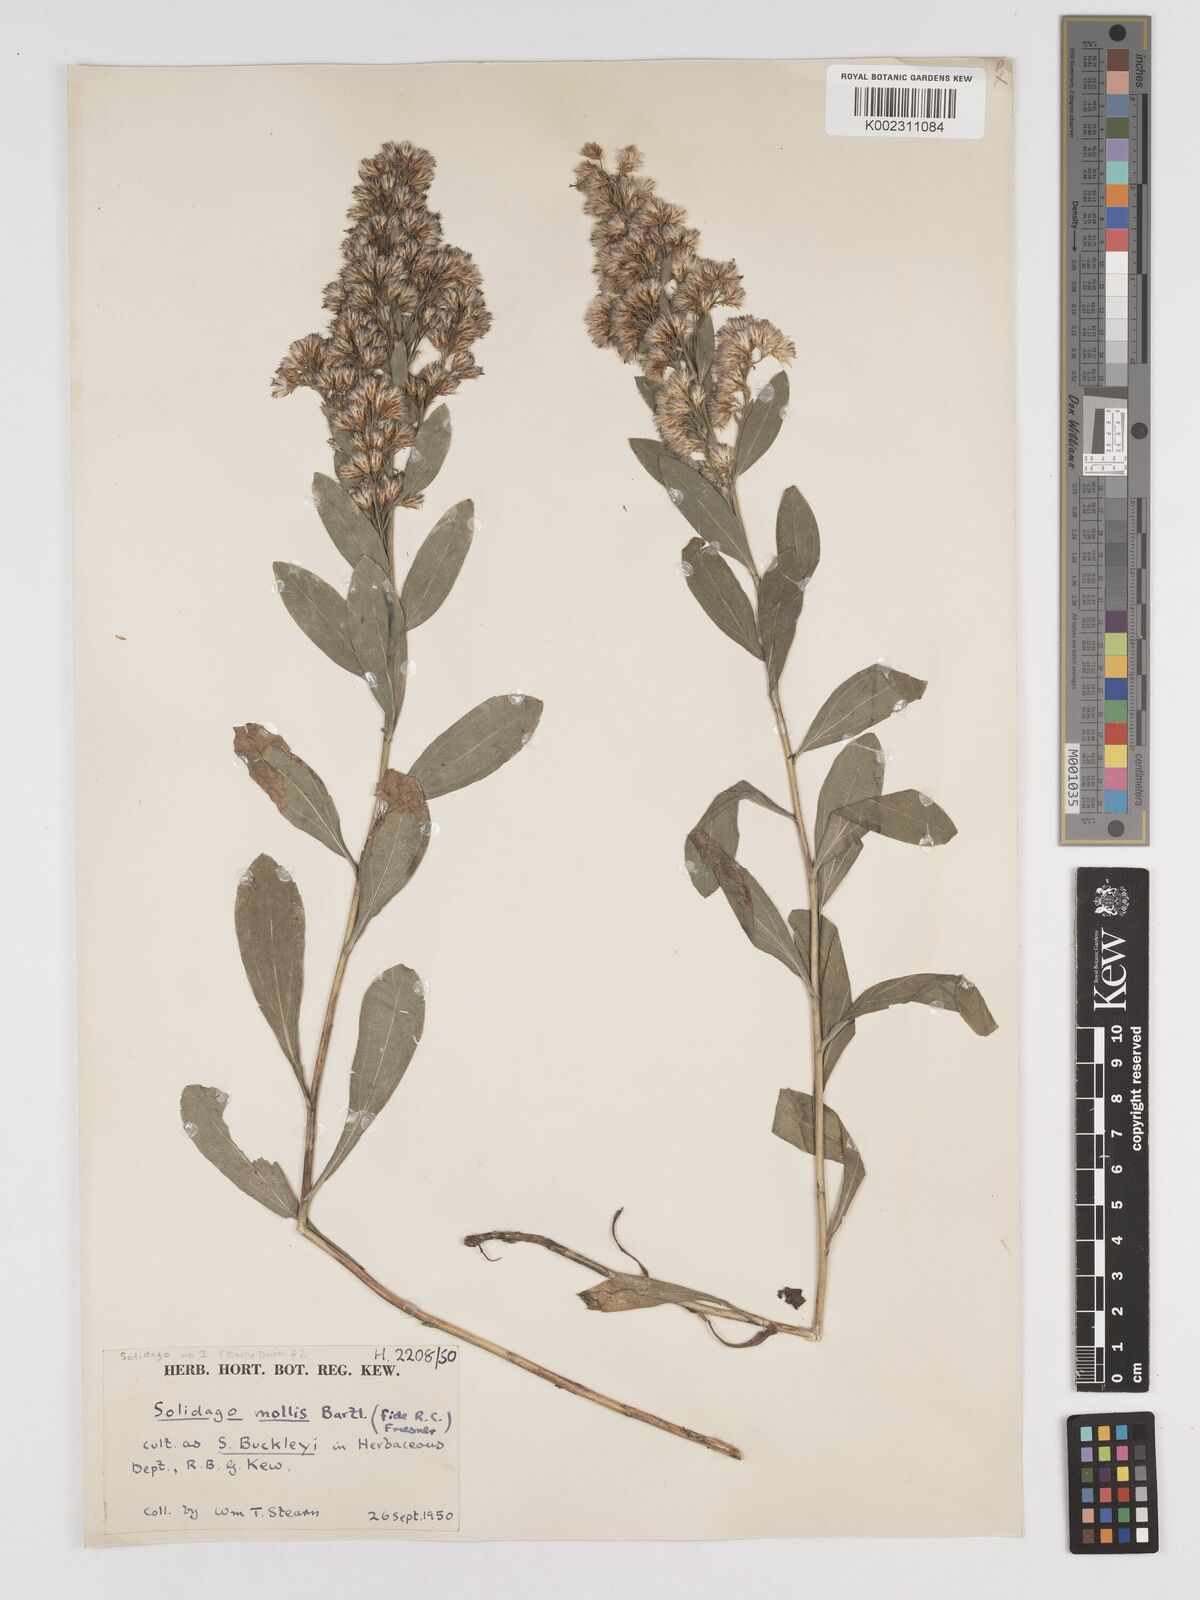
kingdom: Plantae
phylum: Tracheophyta
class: Magnoliopsida
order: Asterales
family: Asteraceae
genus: Solidago
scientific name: Solidago missouriensis
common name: Prairie goldenrod
